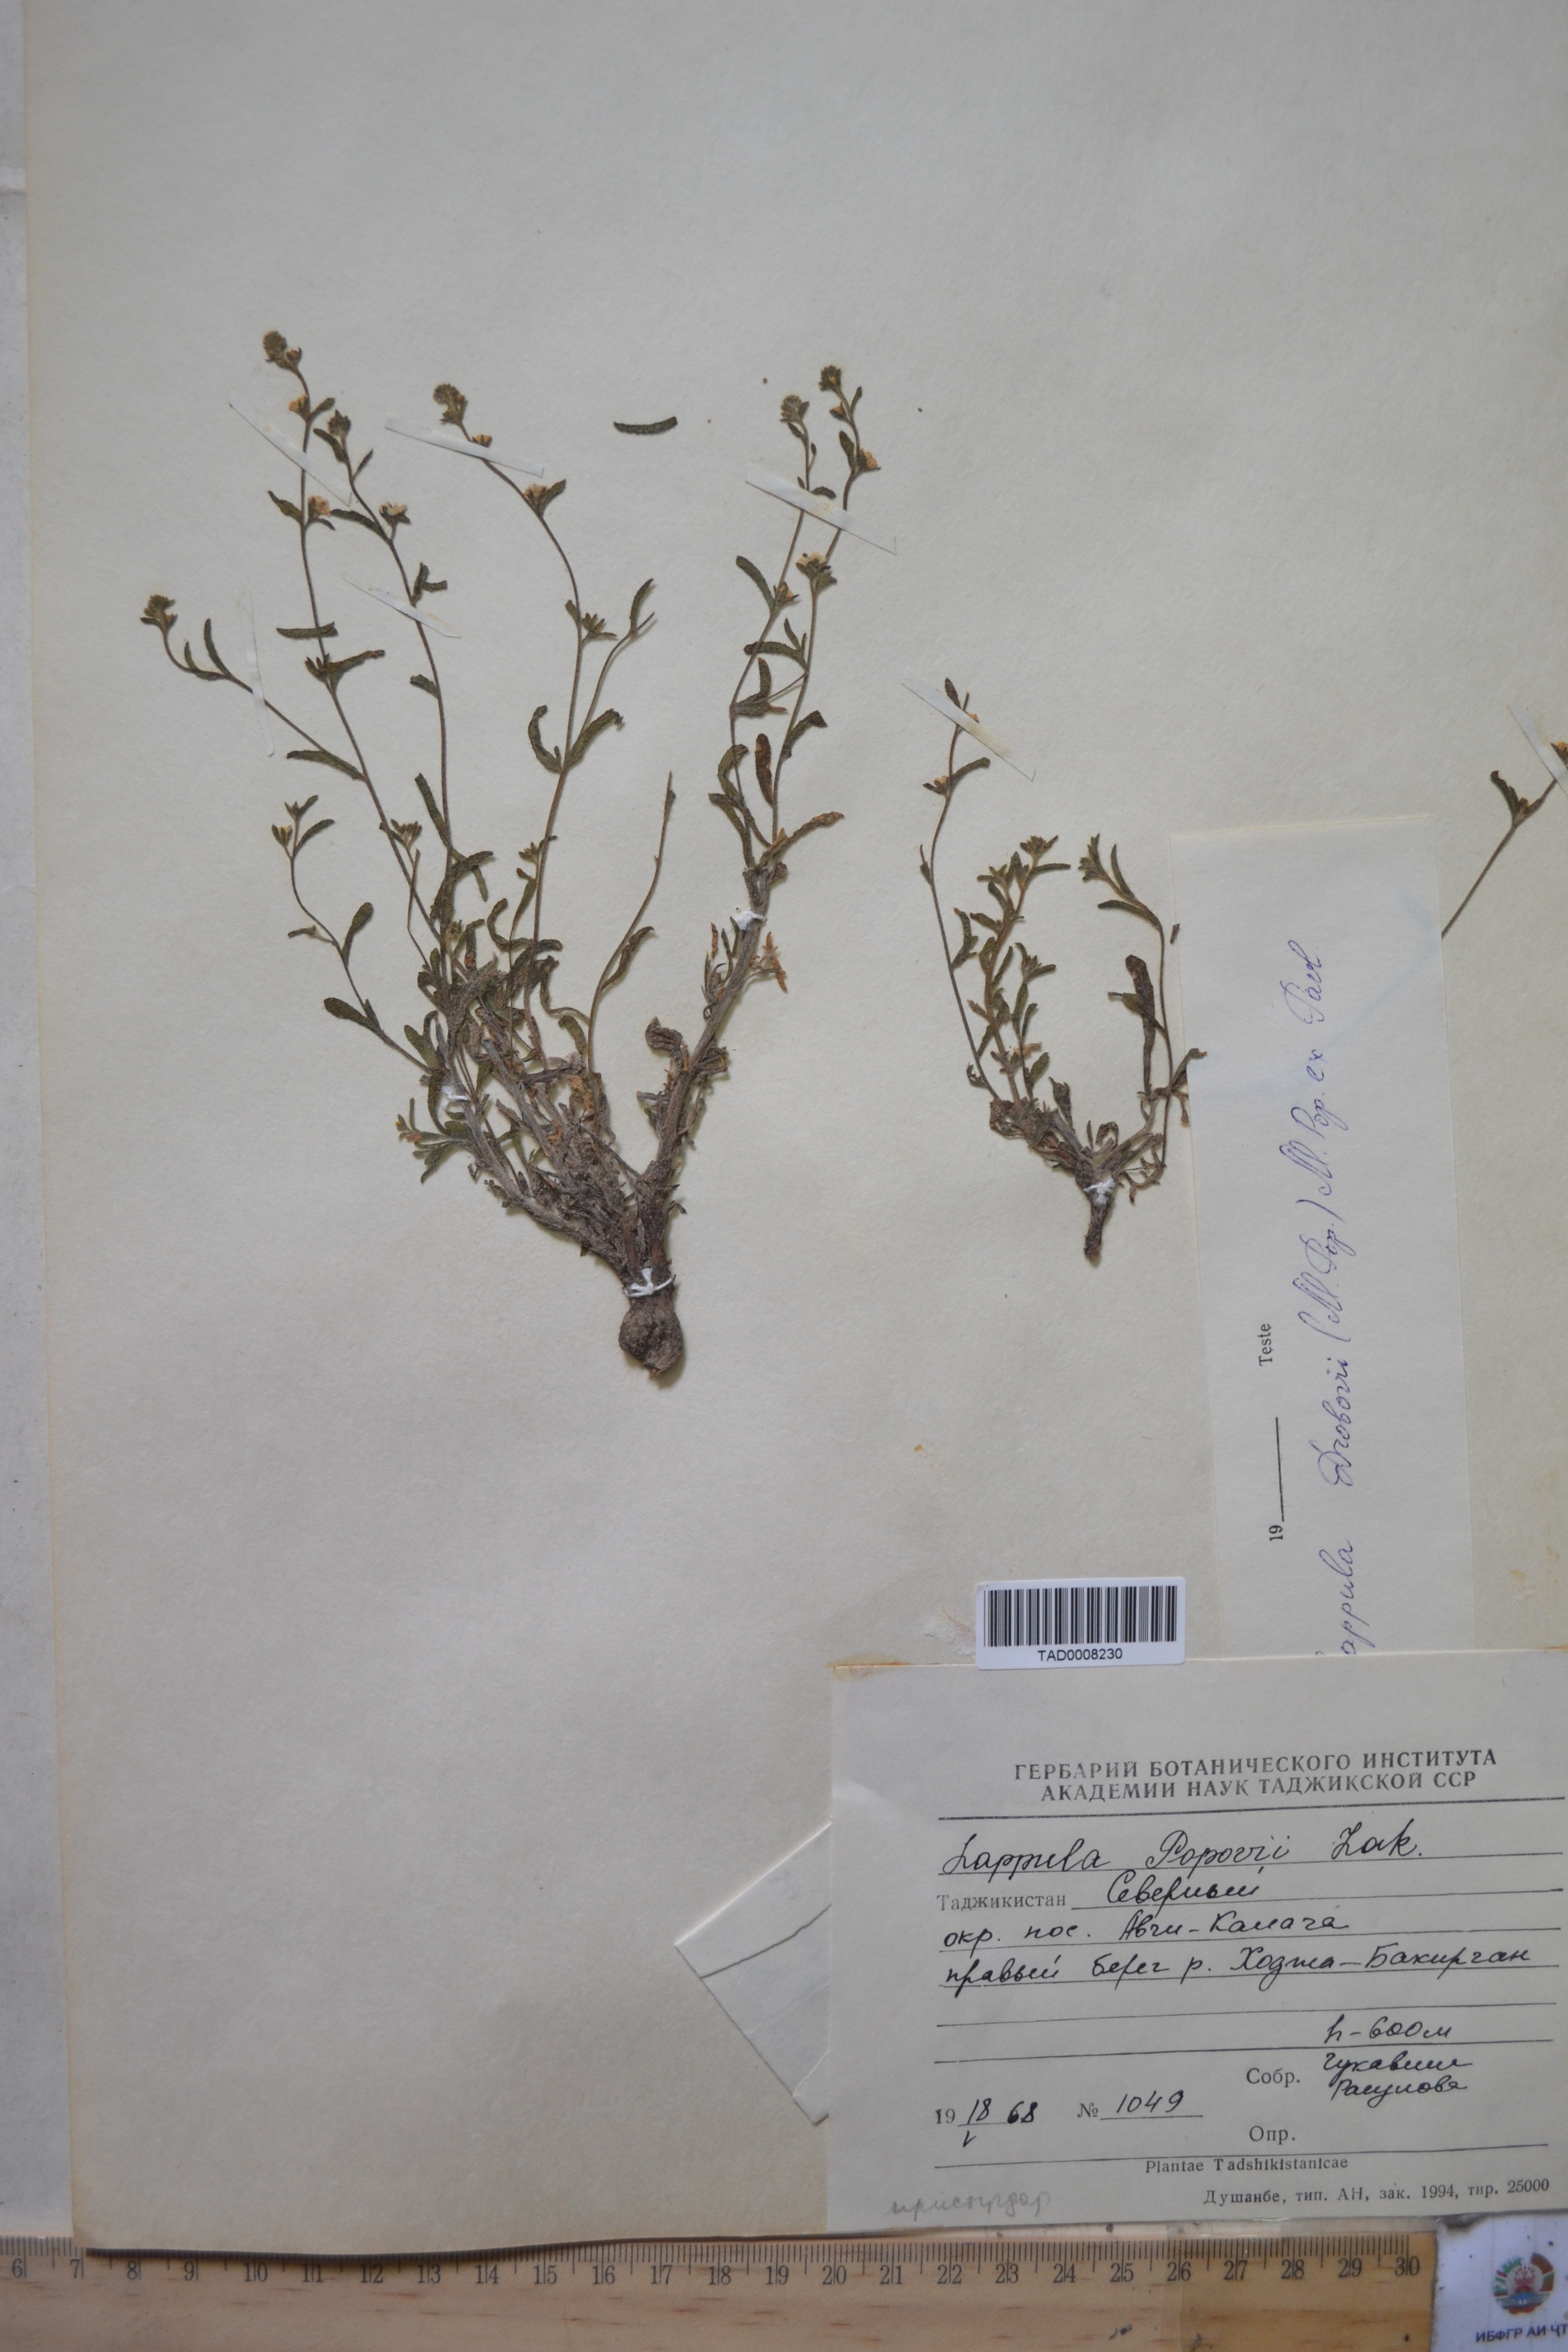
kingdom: Plantae
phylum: Tracheophyta
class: Magnoliopsida
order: Boraginales
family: Boraginaceae
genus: Lappula
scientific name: Lappula popovii
